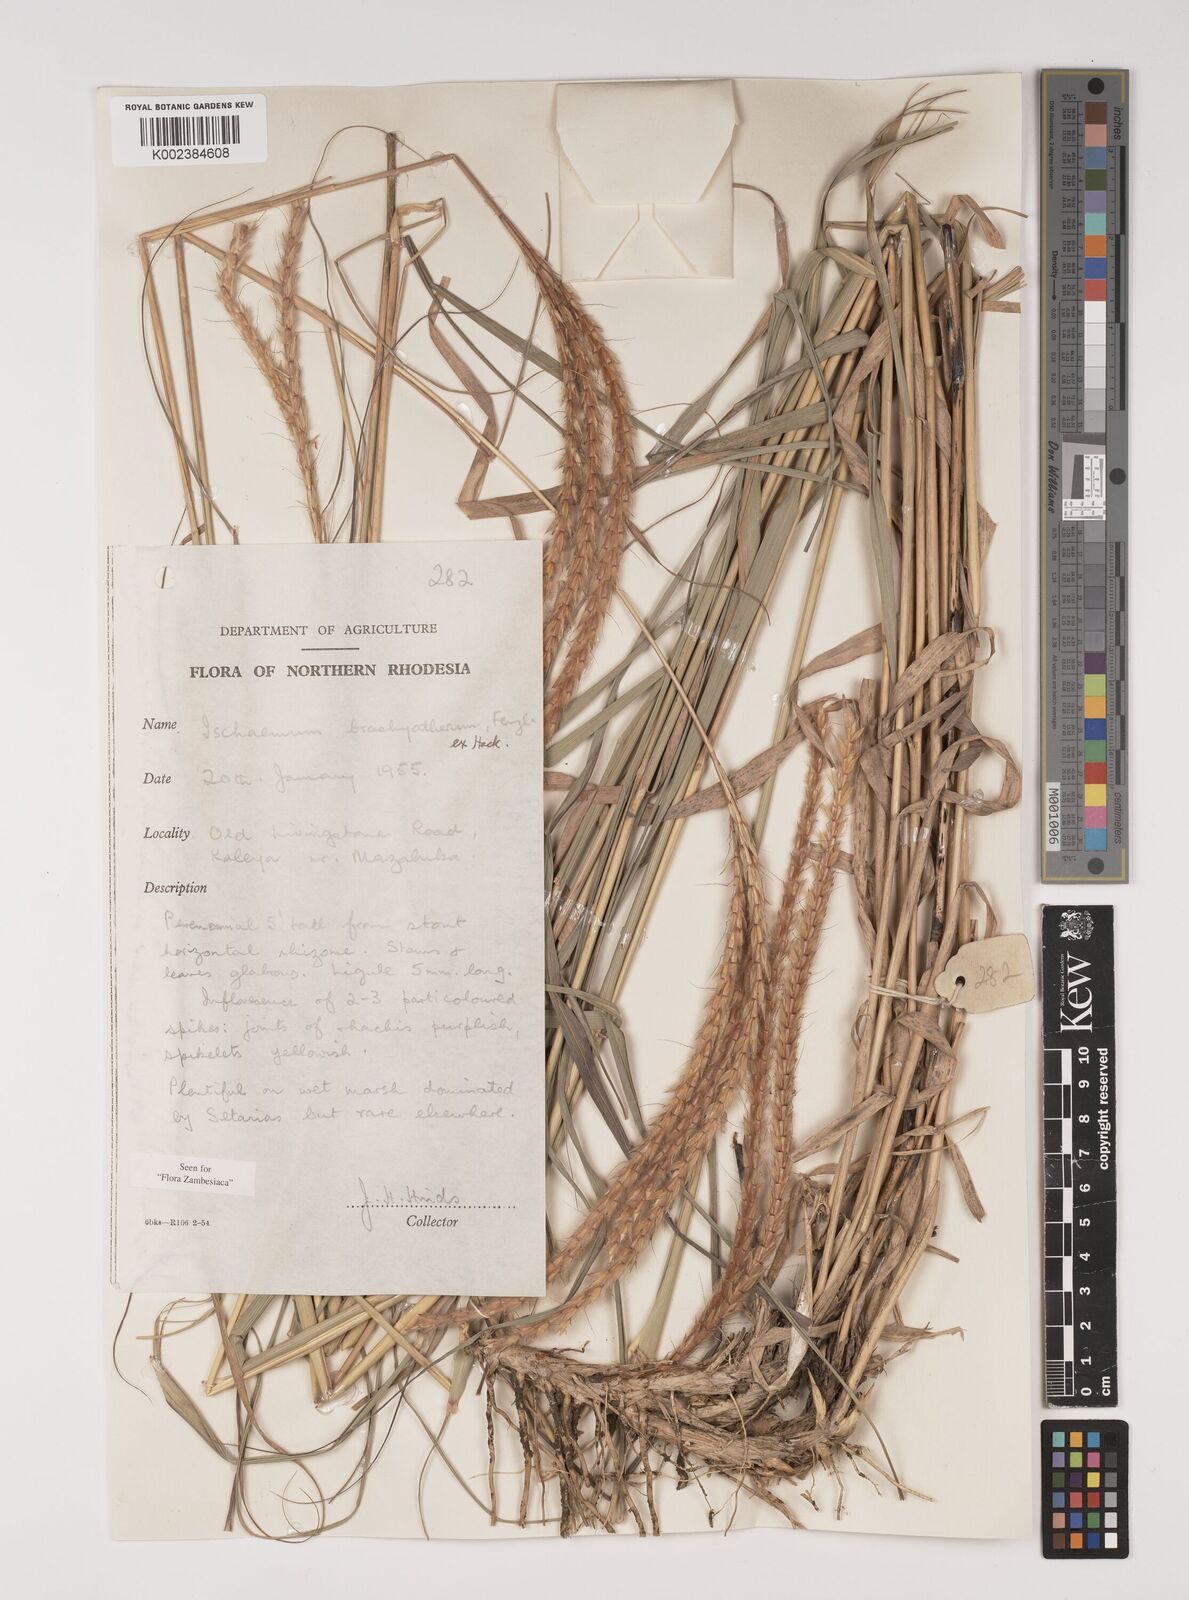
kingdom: Plantae
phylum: Tracheophyta
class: Liliopsida
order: Poales
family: Poaceae
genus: Ischaemum
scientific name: Ischaemum afrum
